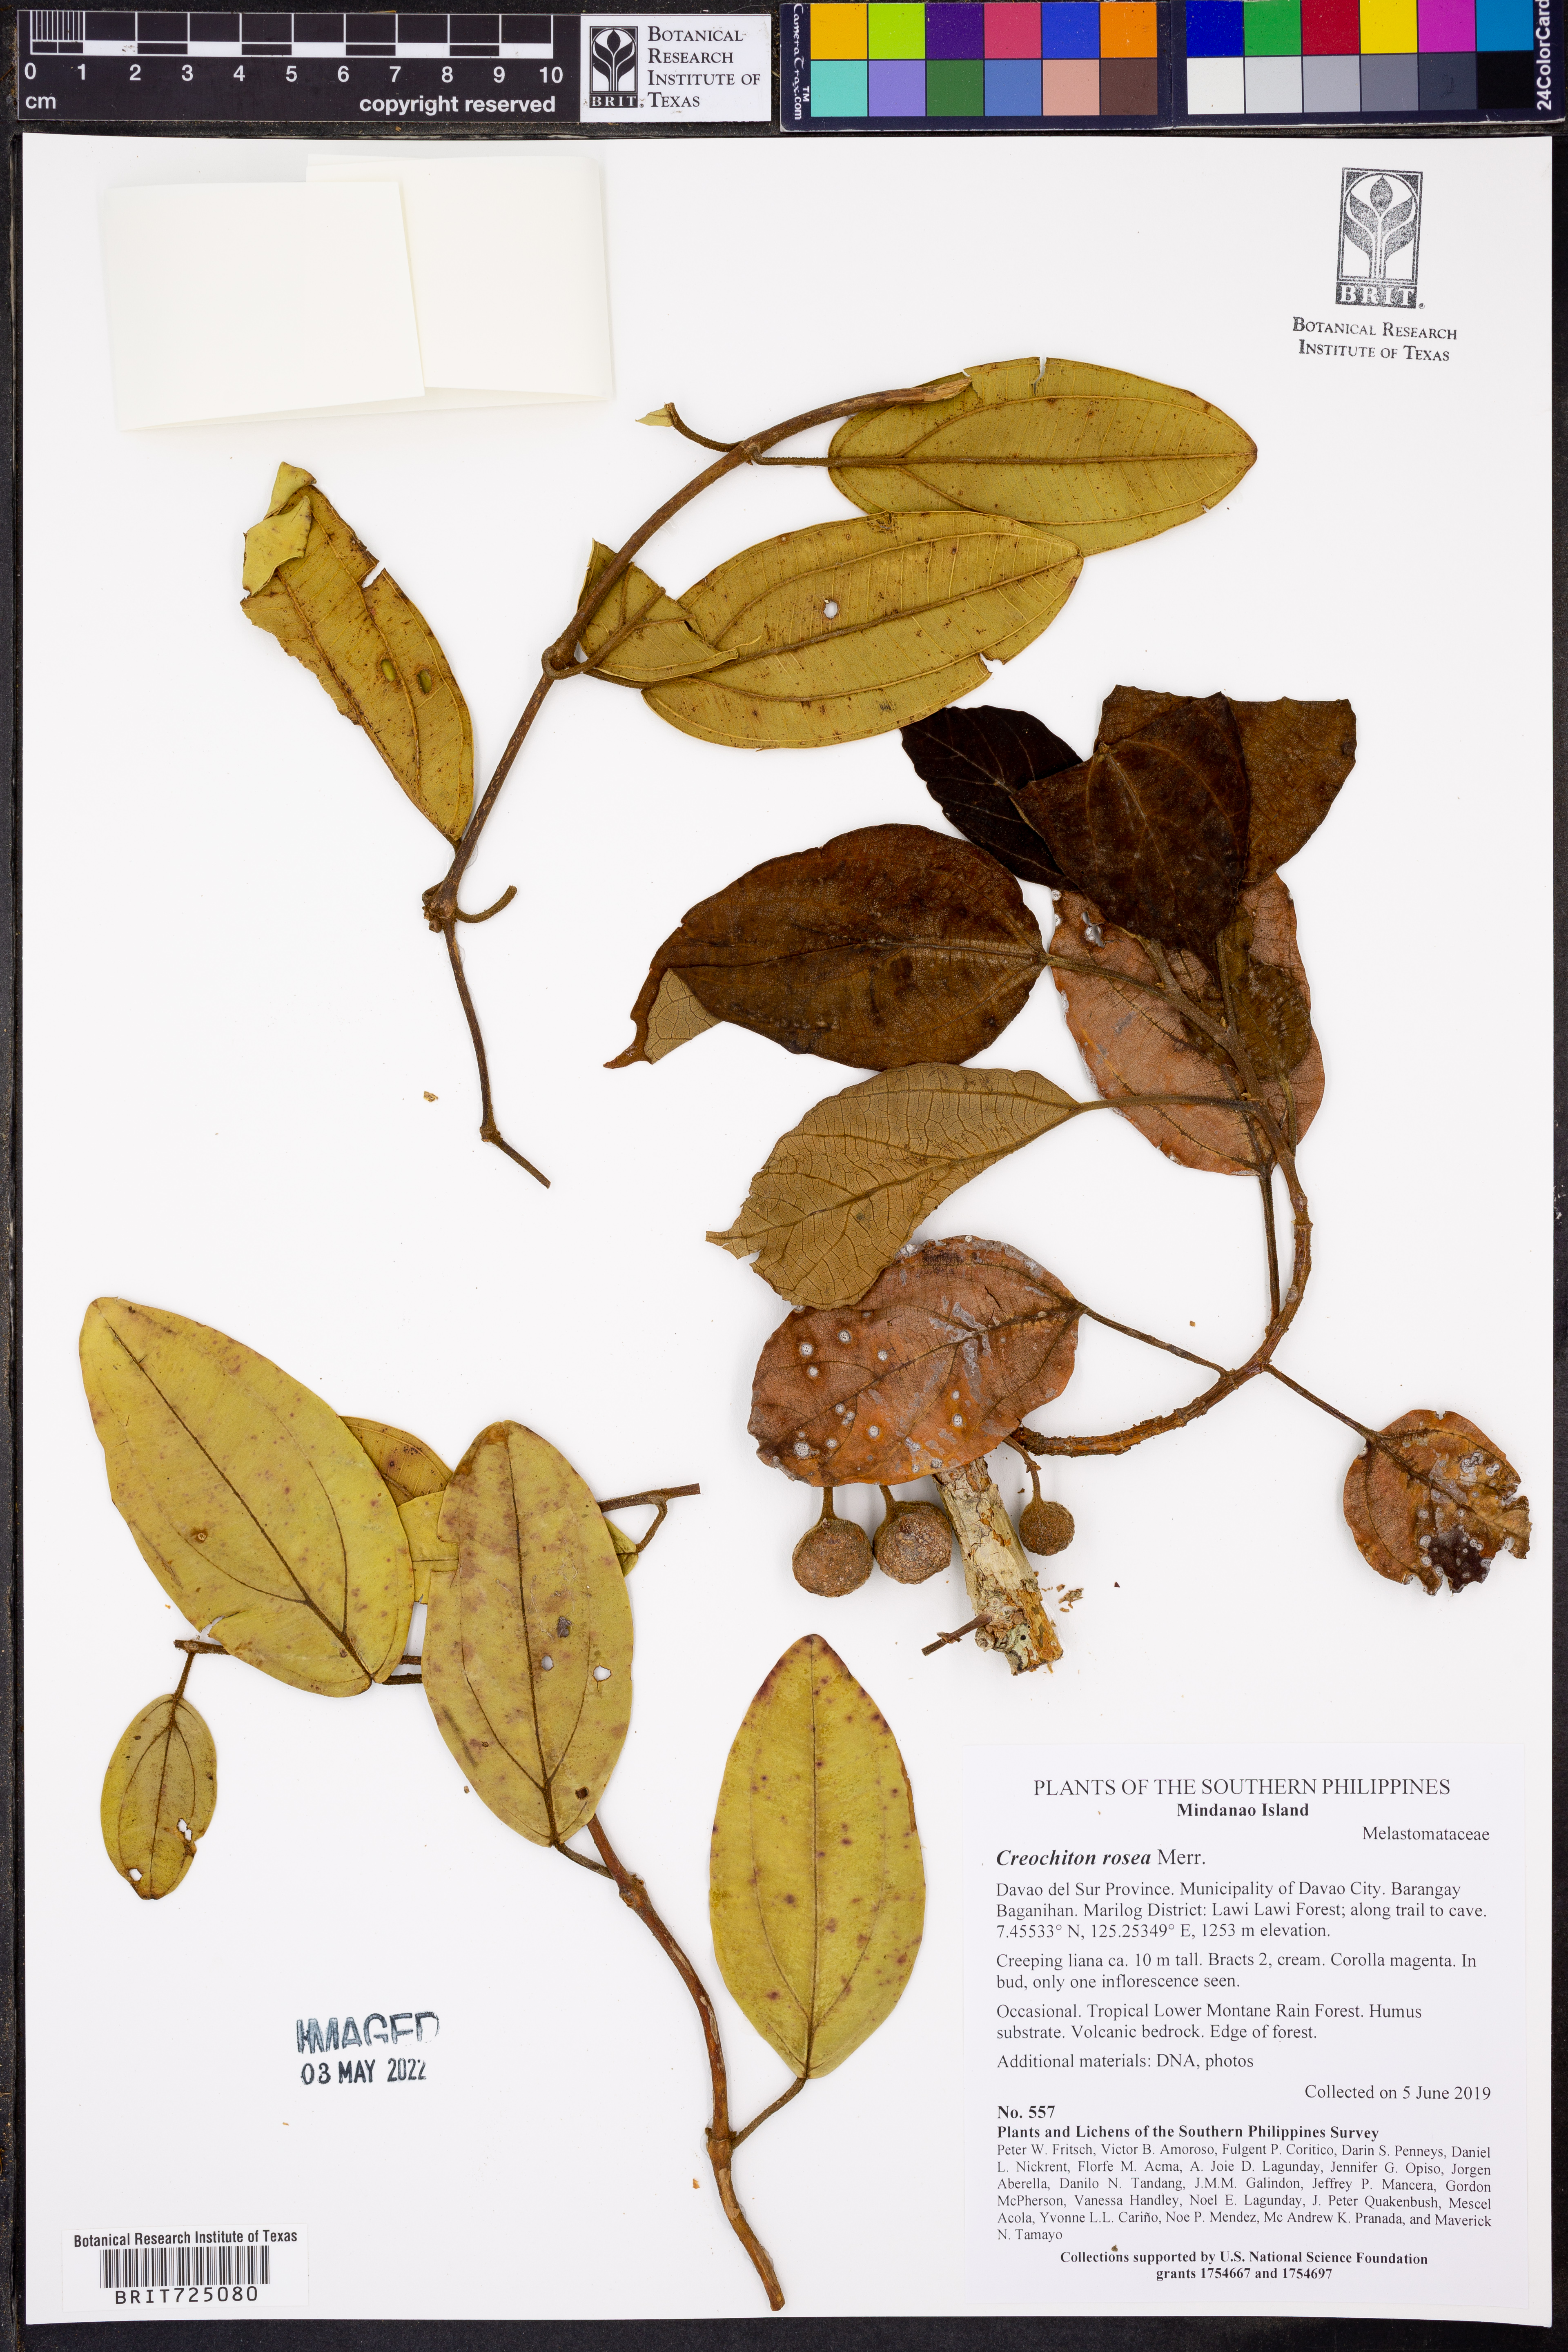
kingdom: Plantae
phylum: Tracheophyta
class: Magnoliopsida
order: Myrtales
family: Melastomataceae
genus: Creochiton
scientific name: Creochiton rosea
